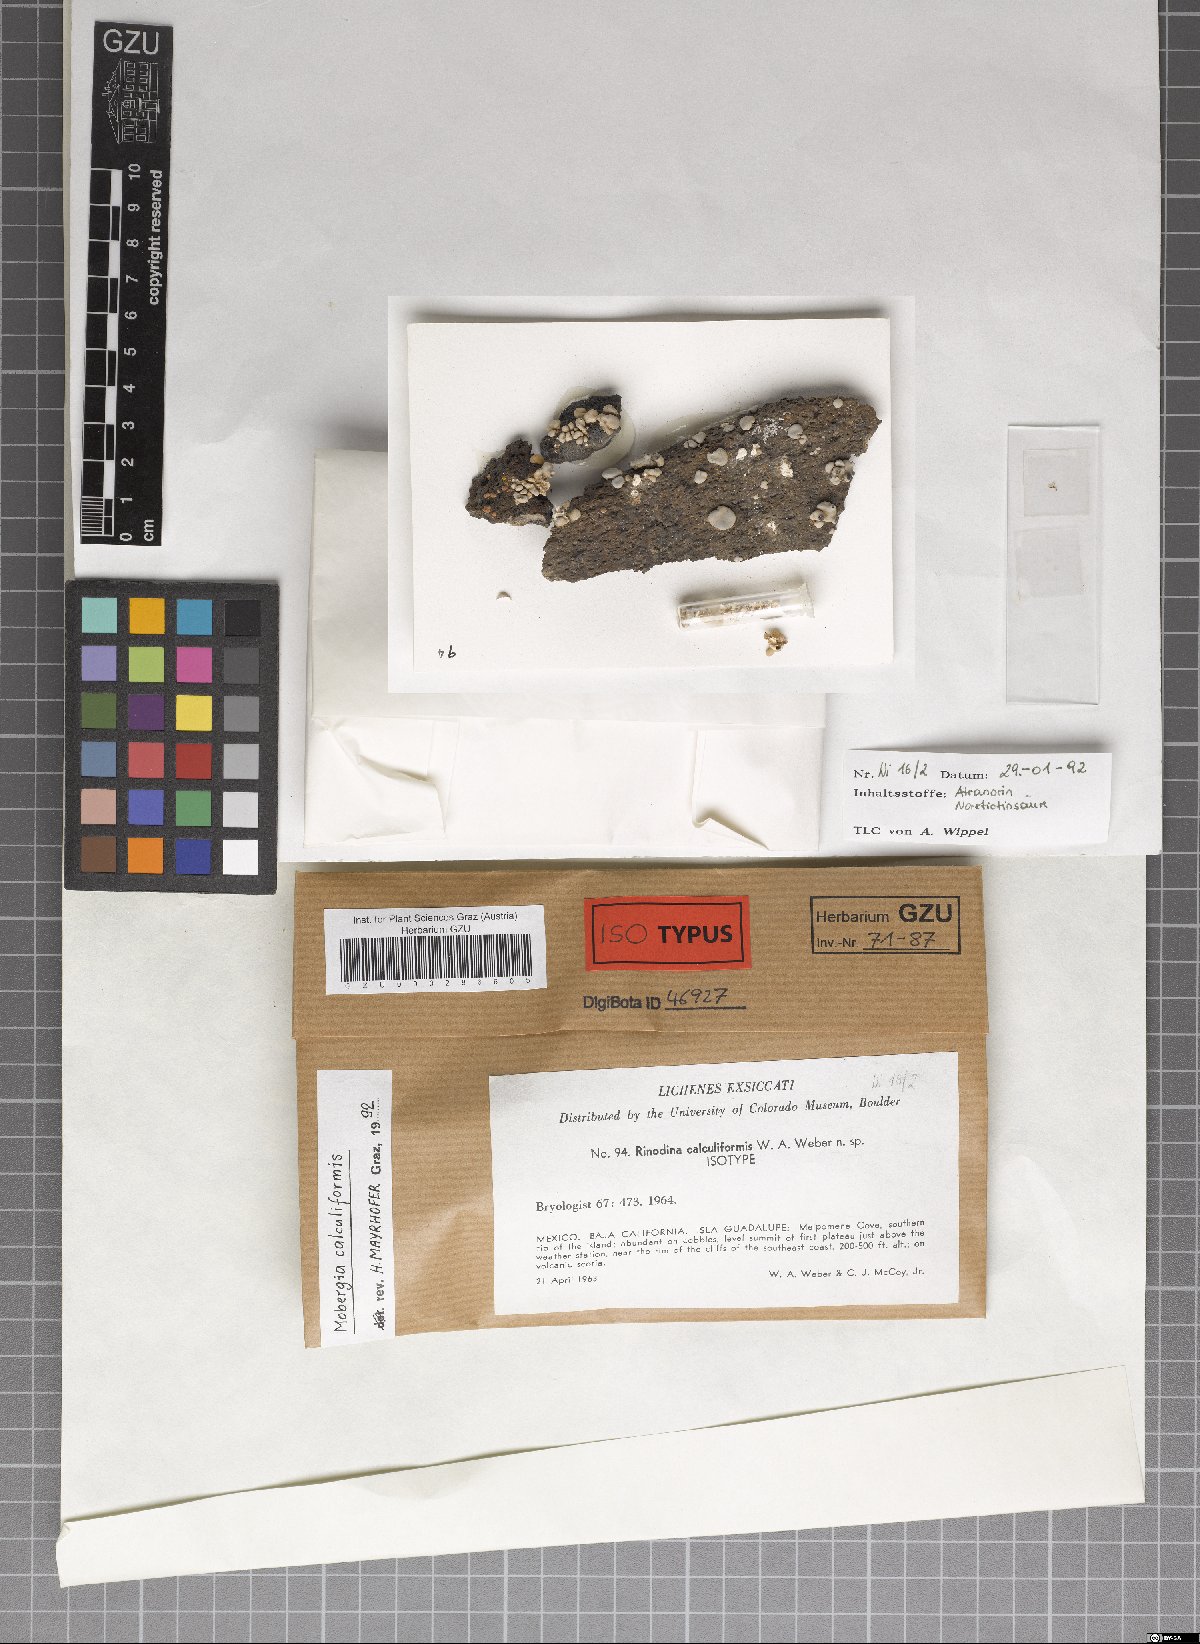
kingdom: Fungi
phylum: Ascomycota
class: Lecanoromycetes
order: Caliciales
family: Physciaceae
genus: Mobergia
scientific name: Mobergia calculiformis
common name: Coastal popcorn lichen
